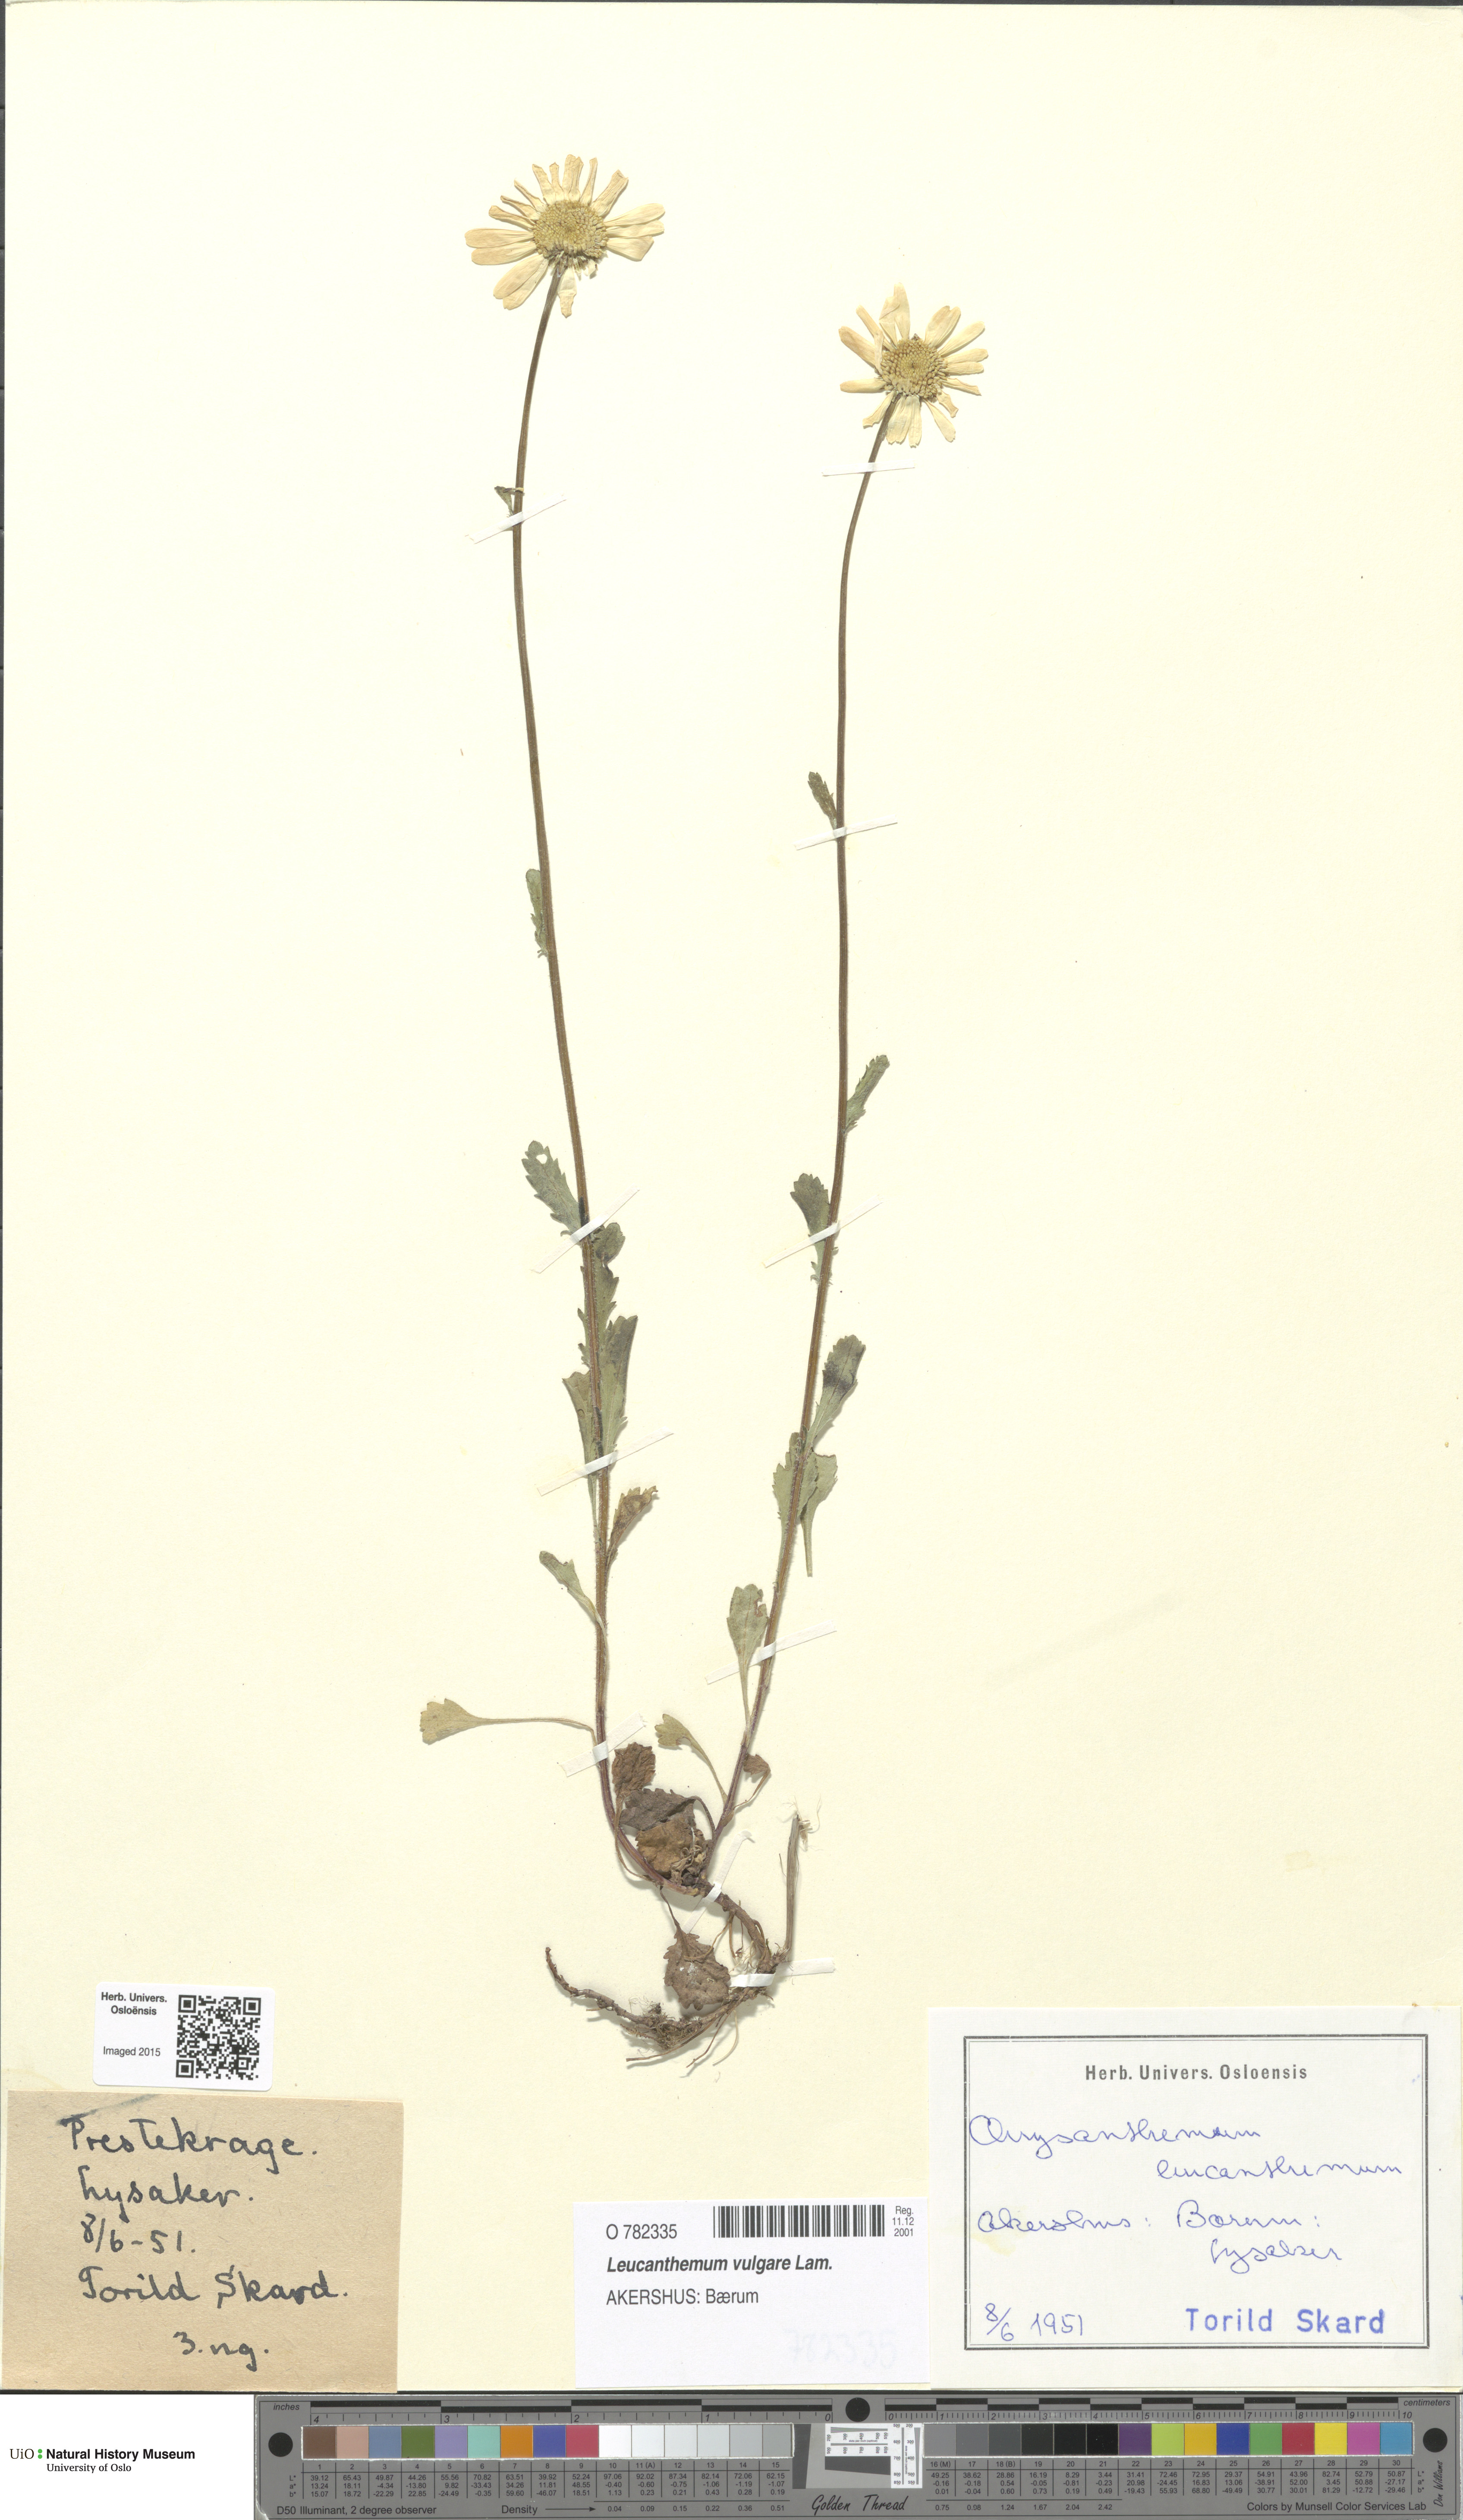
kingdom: Plantae
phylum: Tracheophyta
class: Magnoliopsida
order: Asterales
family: Asteraceae
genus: Leucanthemum
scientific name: Leucanthemum vulgare
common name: Oxeye daisy
